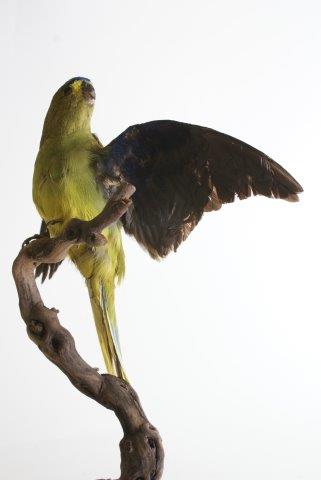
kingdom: Animalia
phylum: Chordata
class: Aves
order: Psittaciformes
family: Psittacidae
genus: Neophema
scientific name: Neophema elegans
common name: Elegant Parrot
